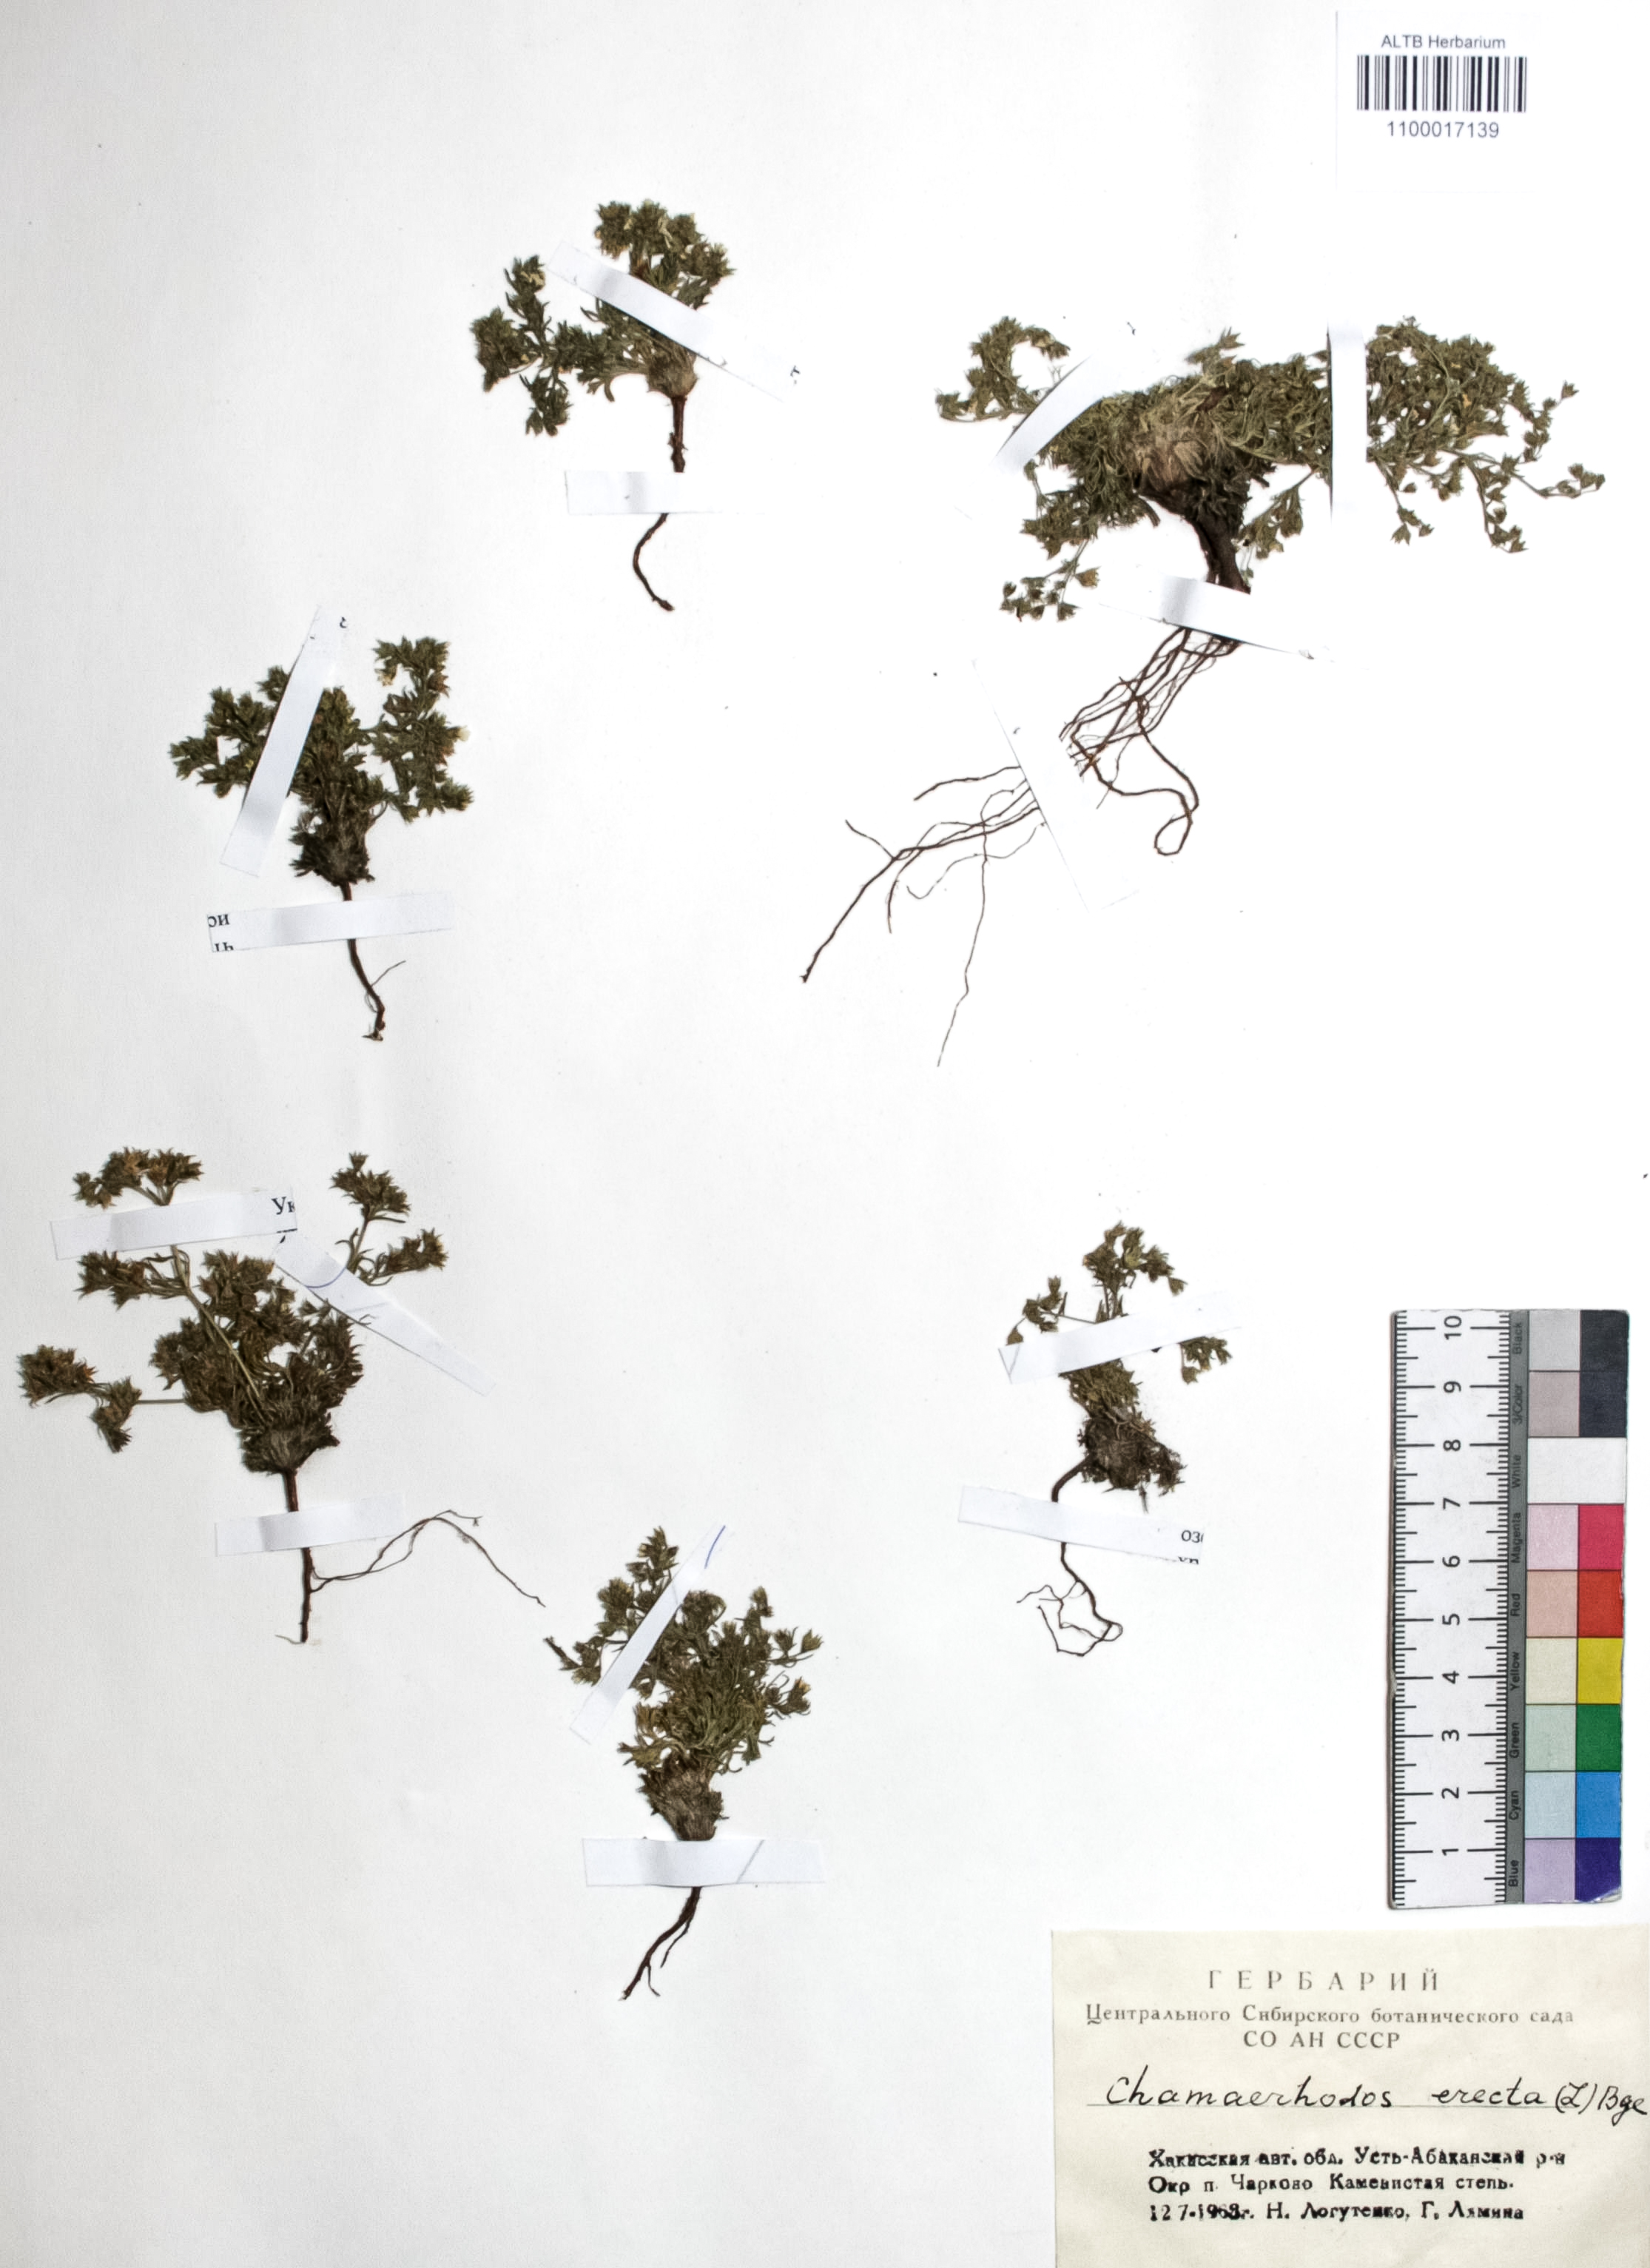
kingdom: Plantae
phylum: Tracheophyta
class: Magnoliopsida
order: Rosales
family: Rosaceae
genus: Chamaerhodos
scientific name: Chamaerhodos erecta
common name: American chamaerhodos
